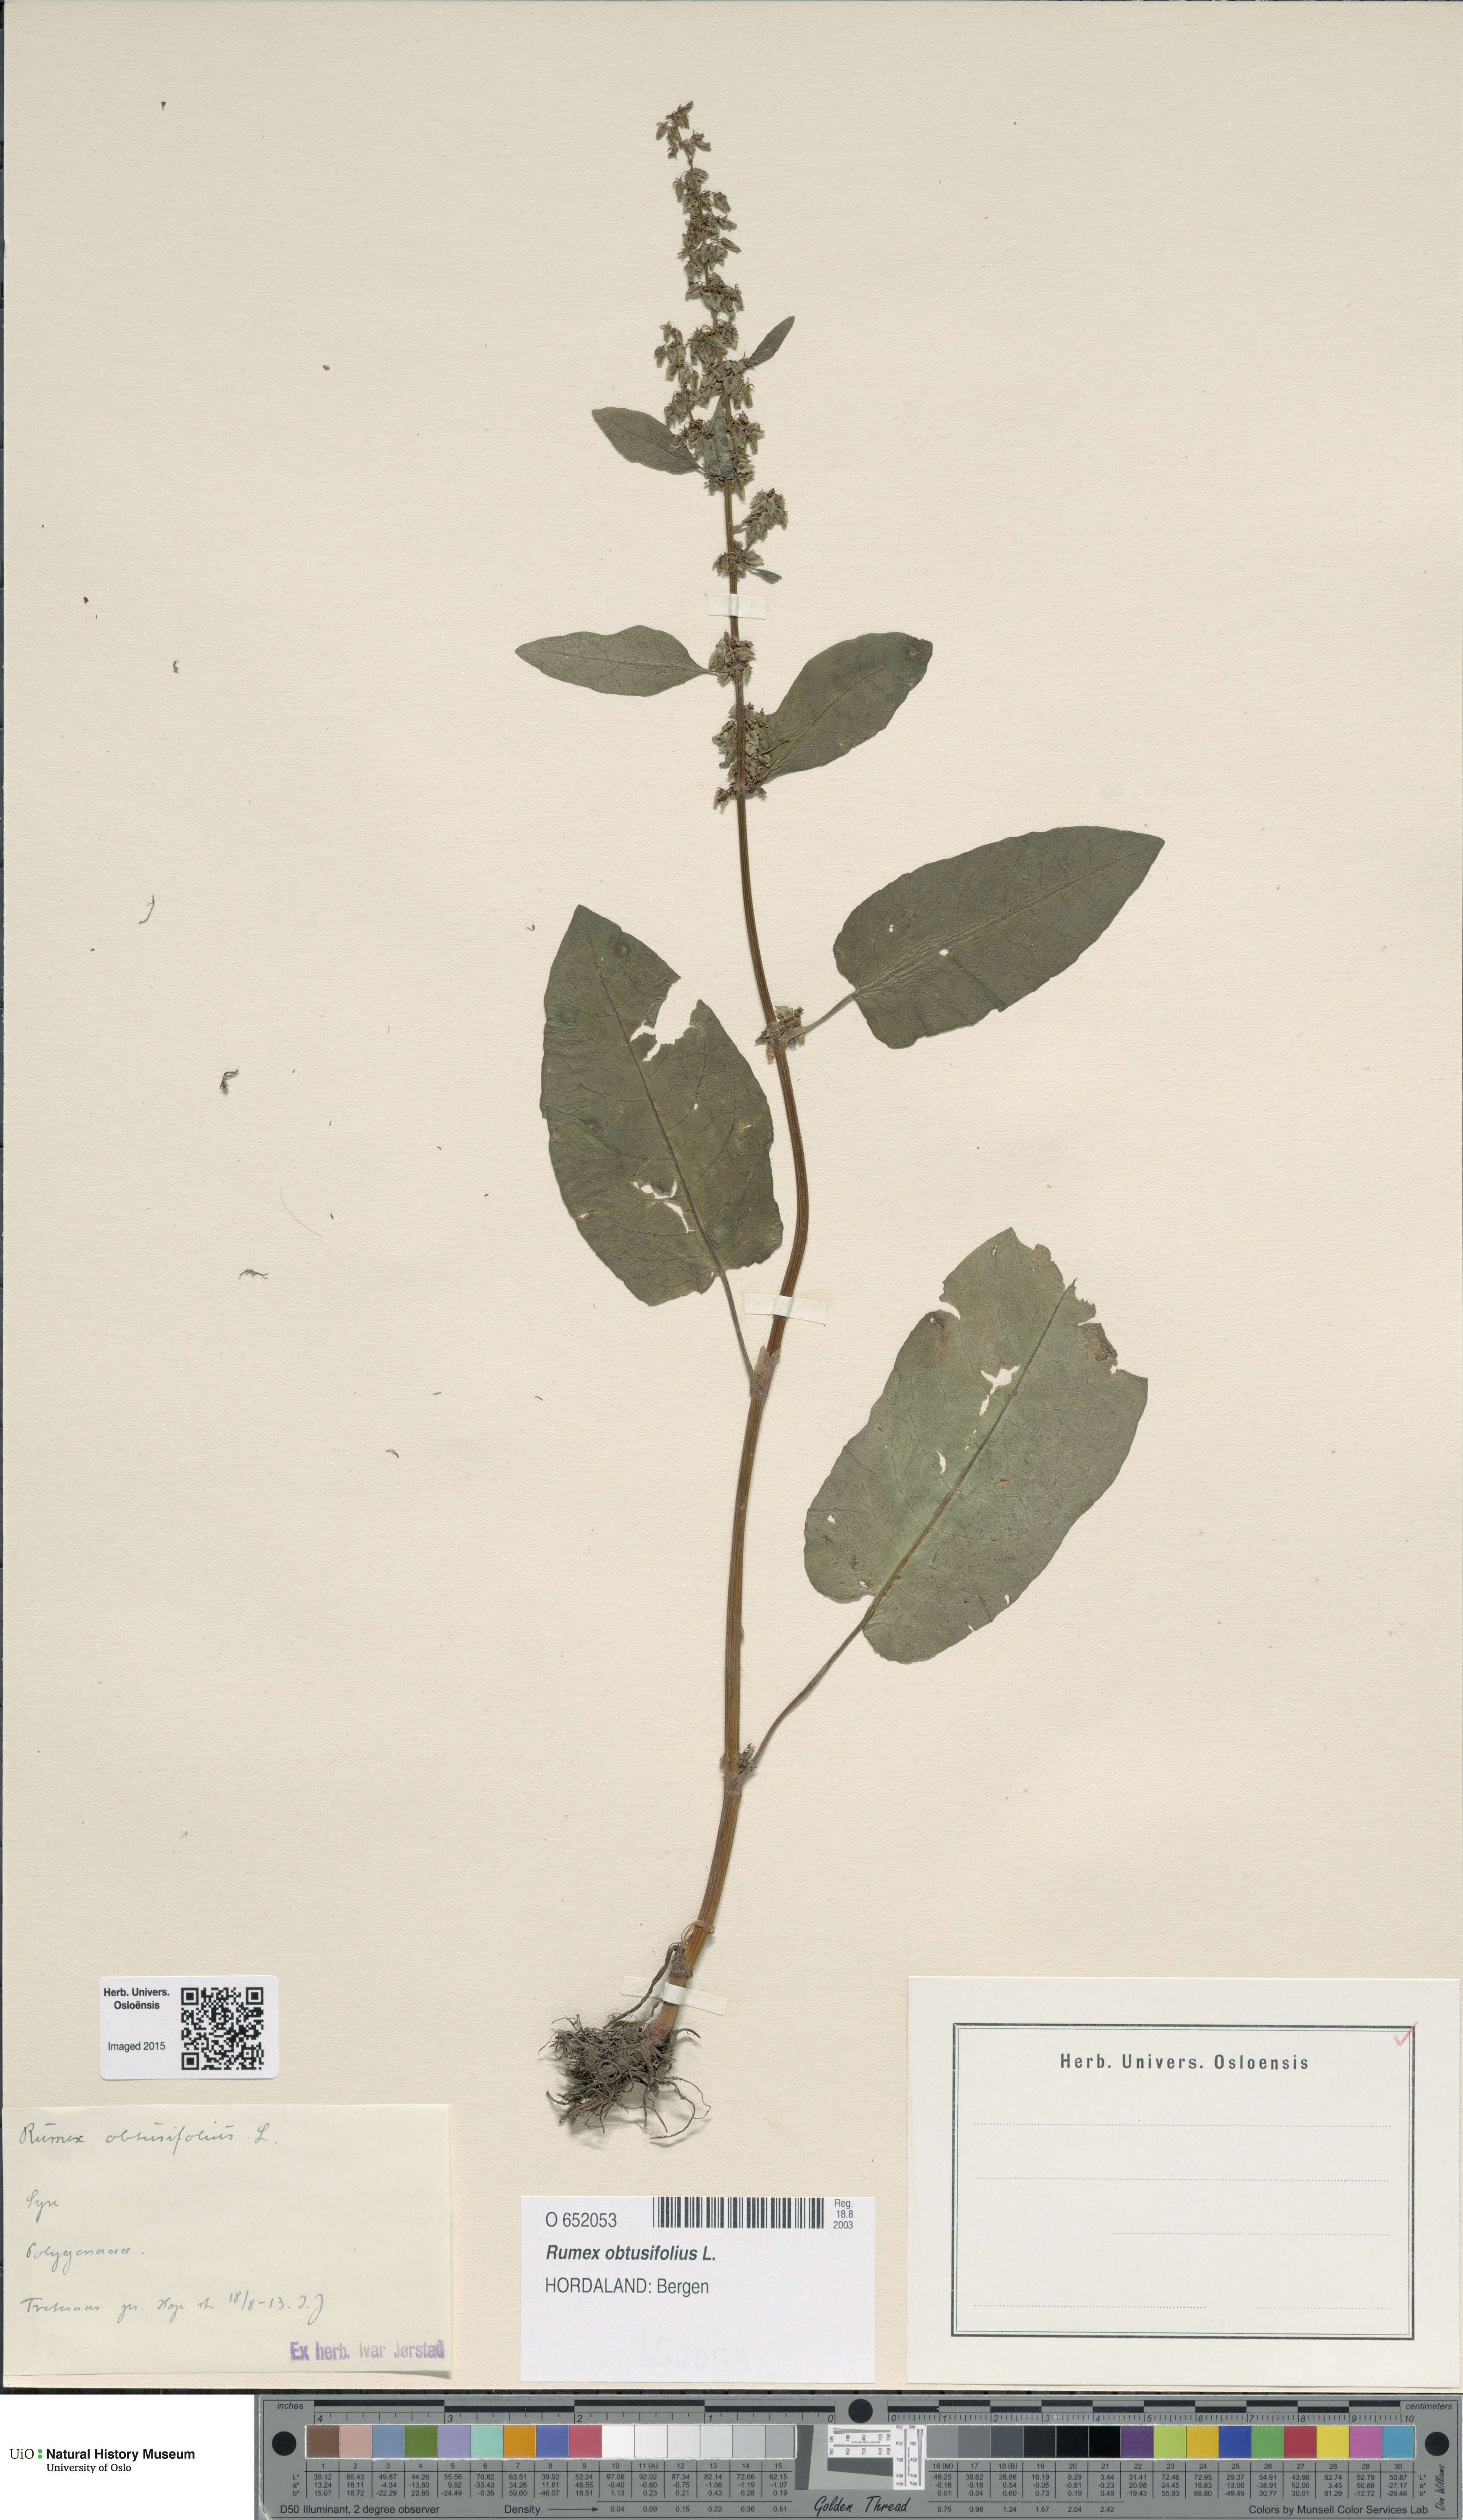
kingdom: Plantae
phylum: Tracheophyta
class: Magnoliopsida
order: Caryophyllales
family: Polygonaceae
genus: Rumex
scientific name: Rumex obtusifolius
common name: Bitter dock
